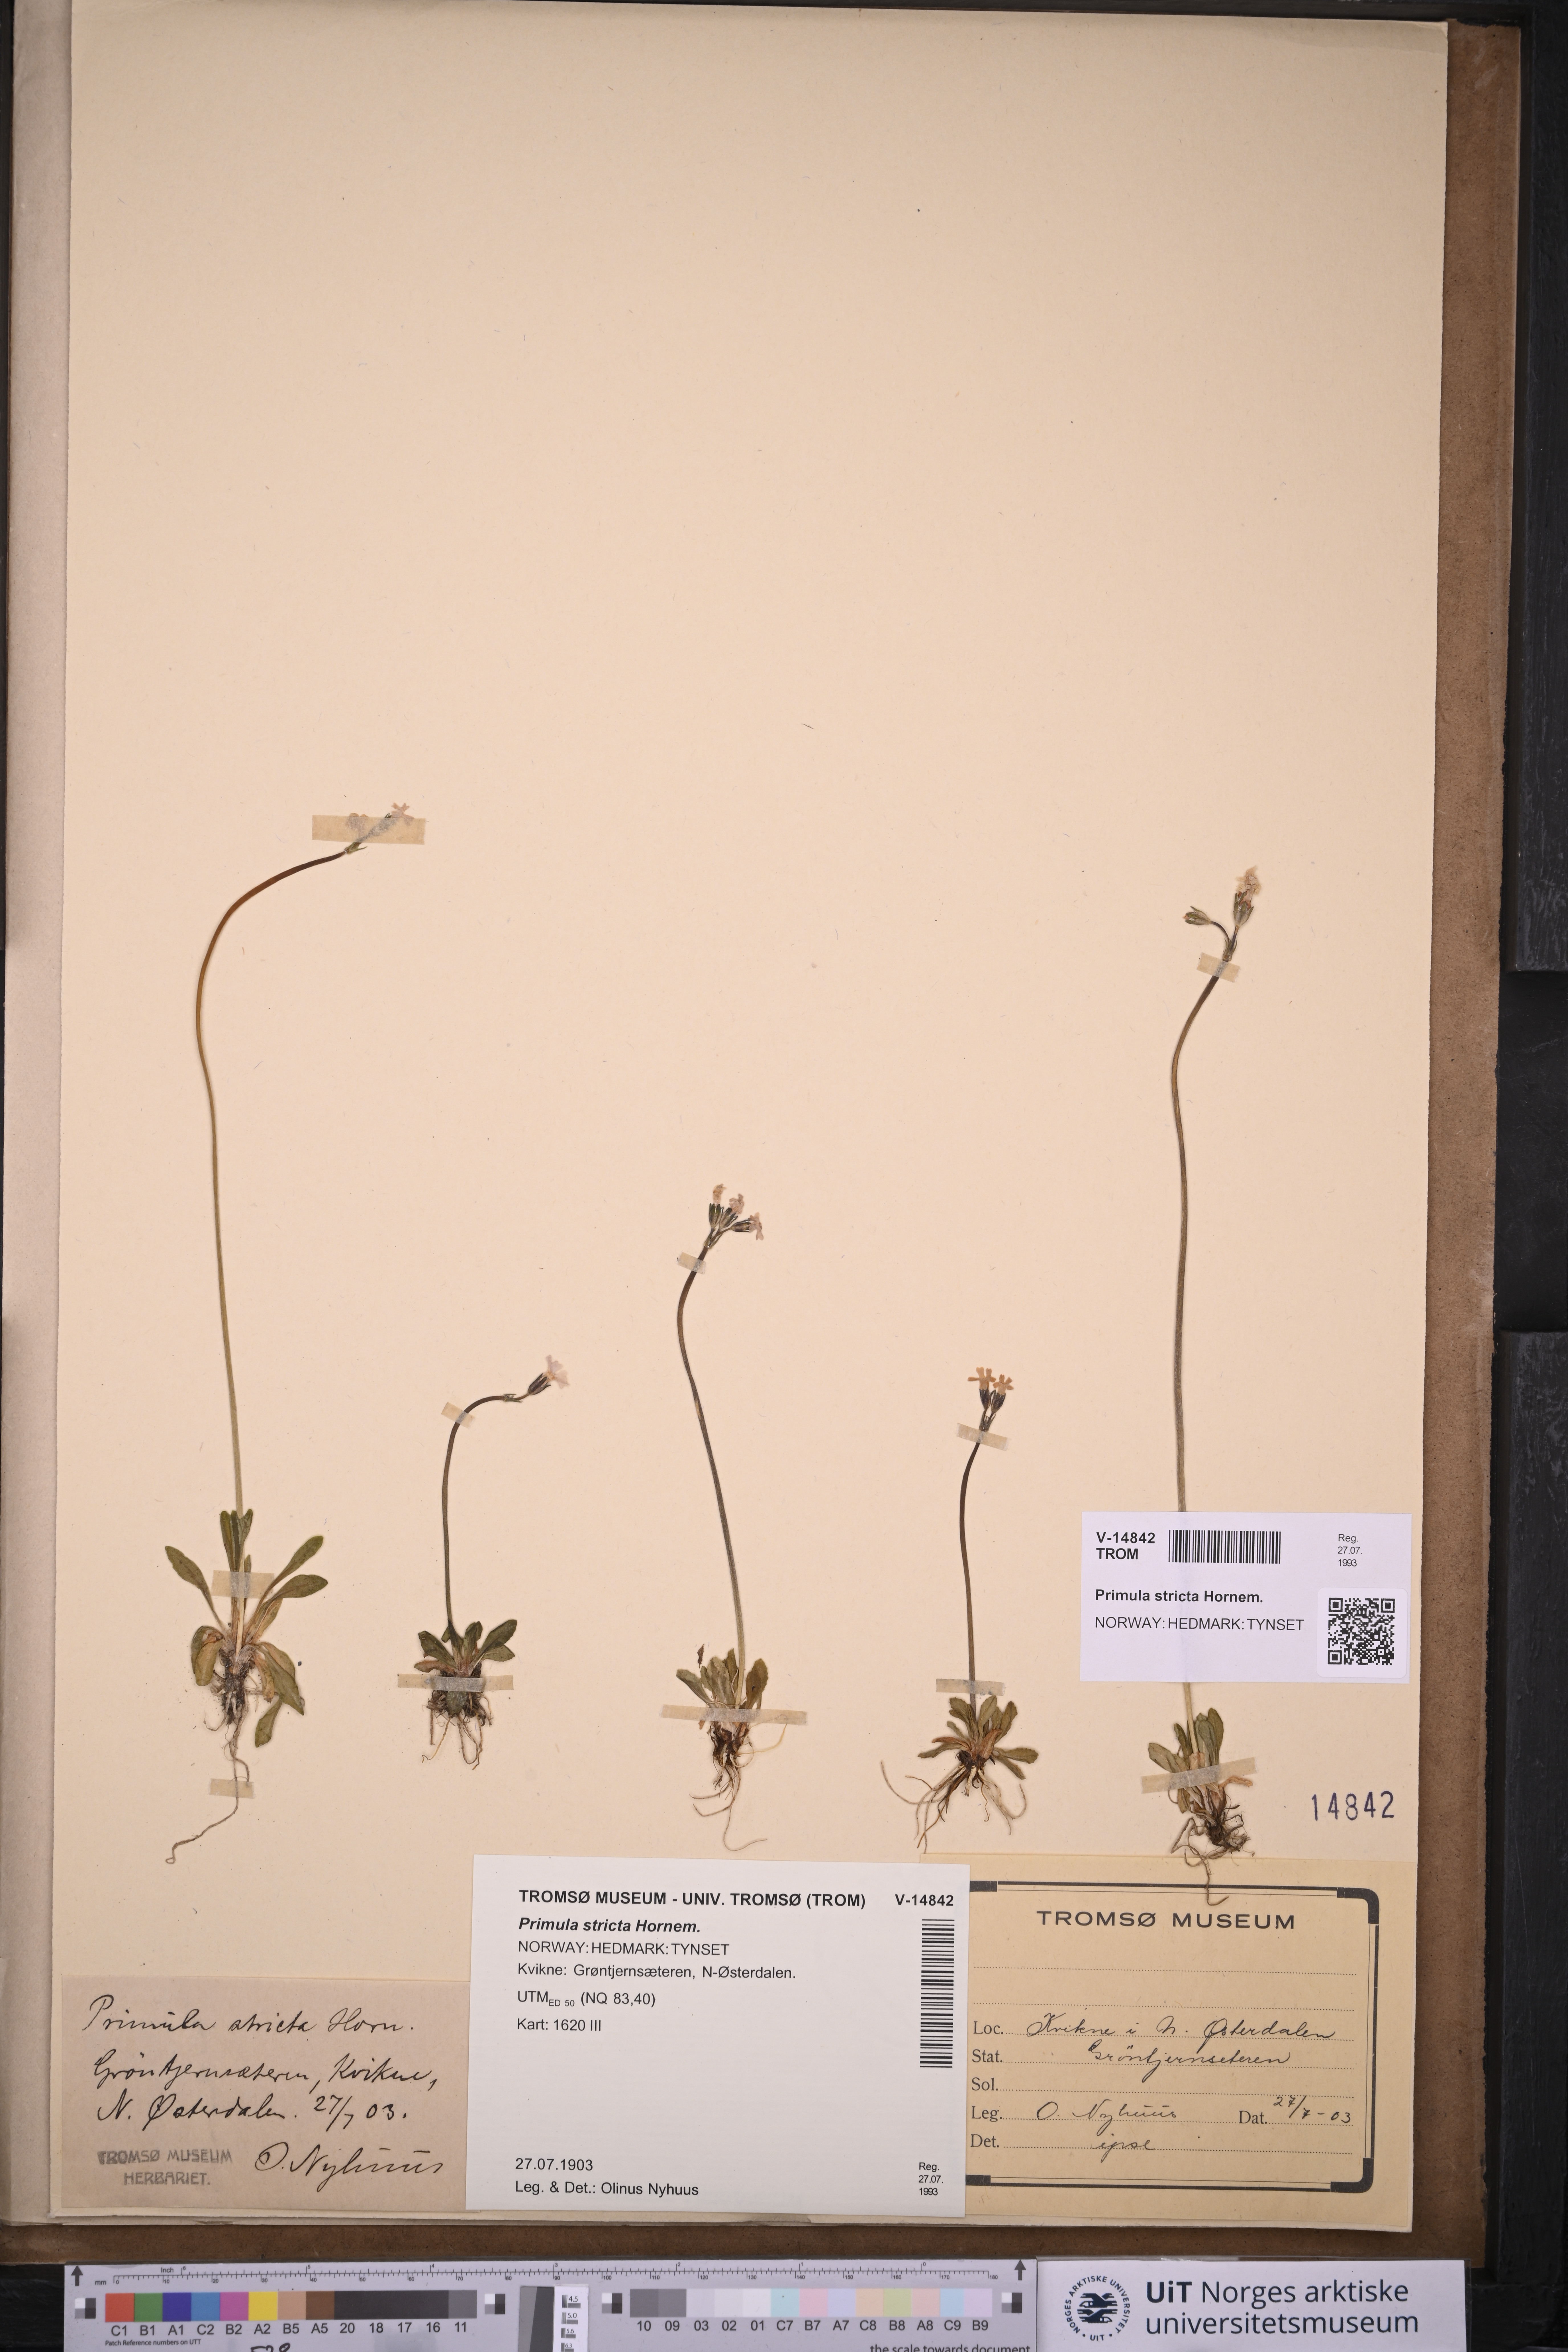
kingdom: Plantae
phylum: Tracheophyta
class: Magnoliopsida
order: Ericales
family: Primulaceae
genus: Primula
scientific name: Primula stricta
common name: Coastal primrose
